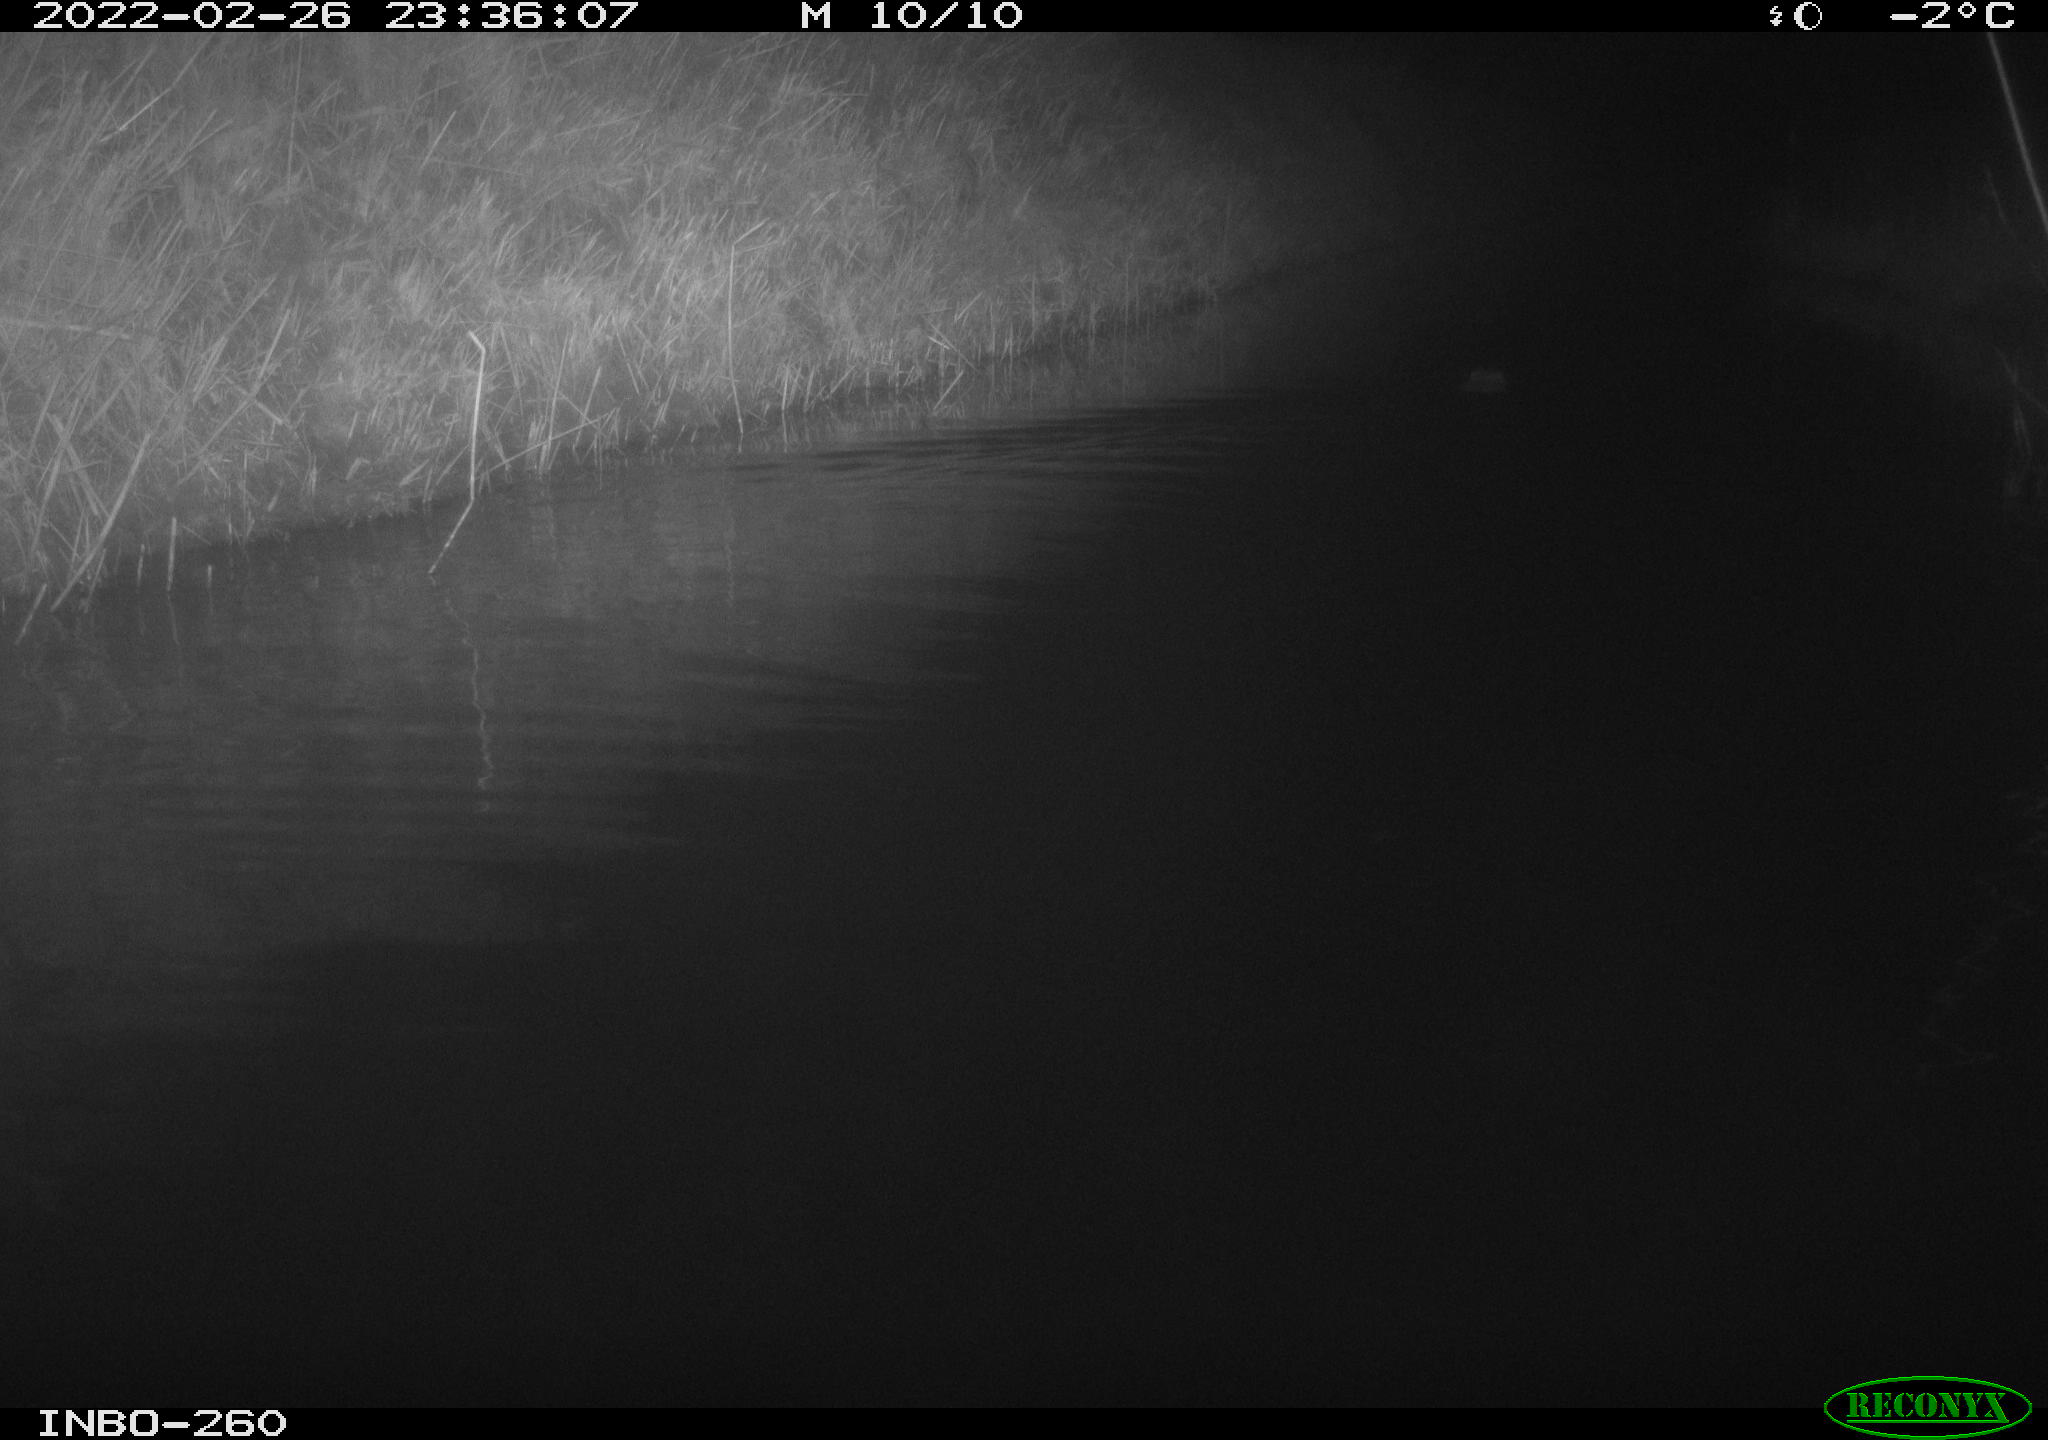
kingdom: Animalia
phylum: Chordata
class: Mammalia
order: Rodentia
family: Cricetidae
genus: Ondatra
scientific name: Ondatra zibethicus
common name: Muskrat
